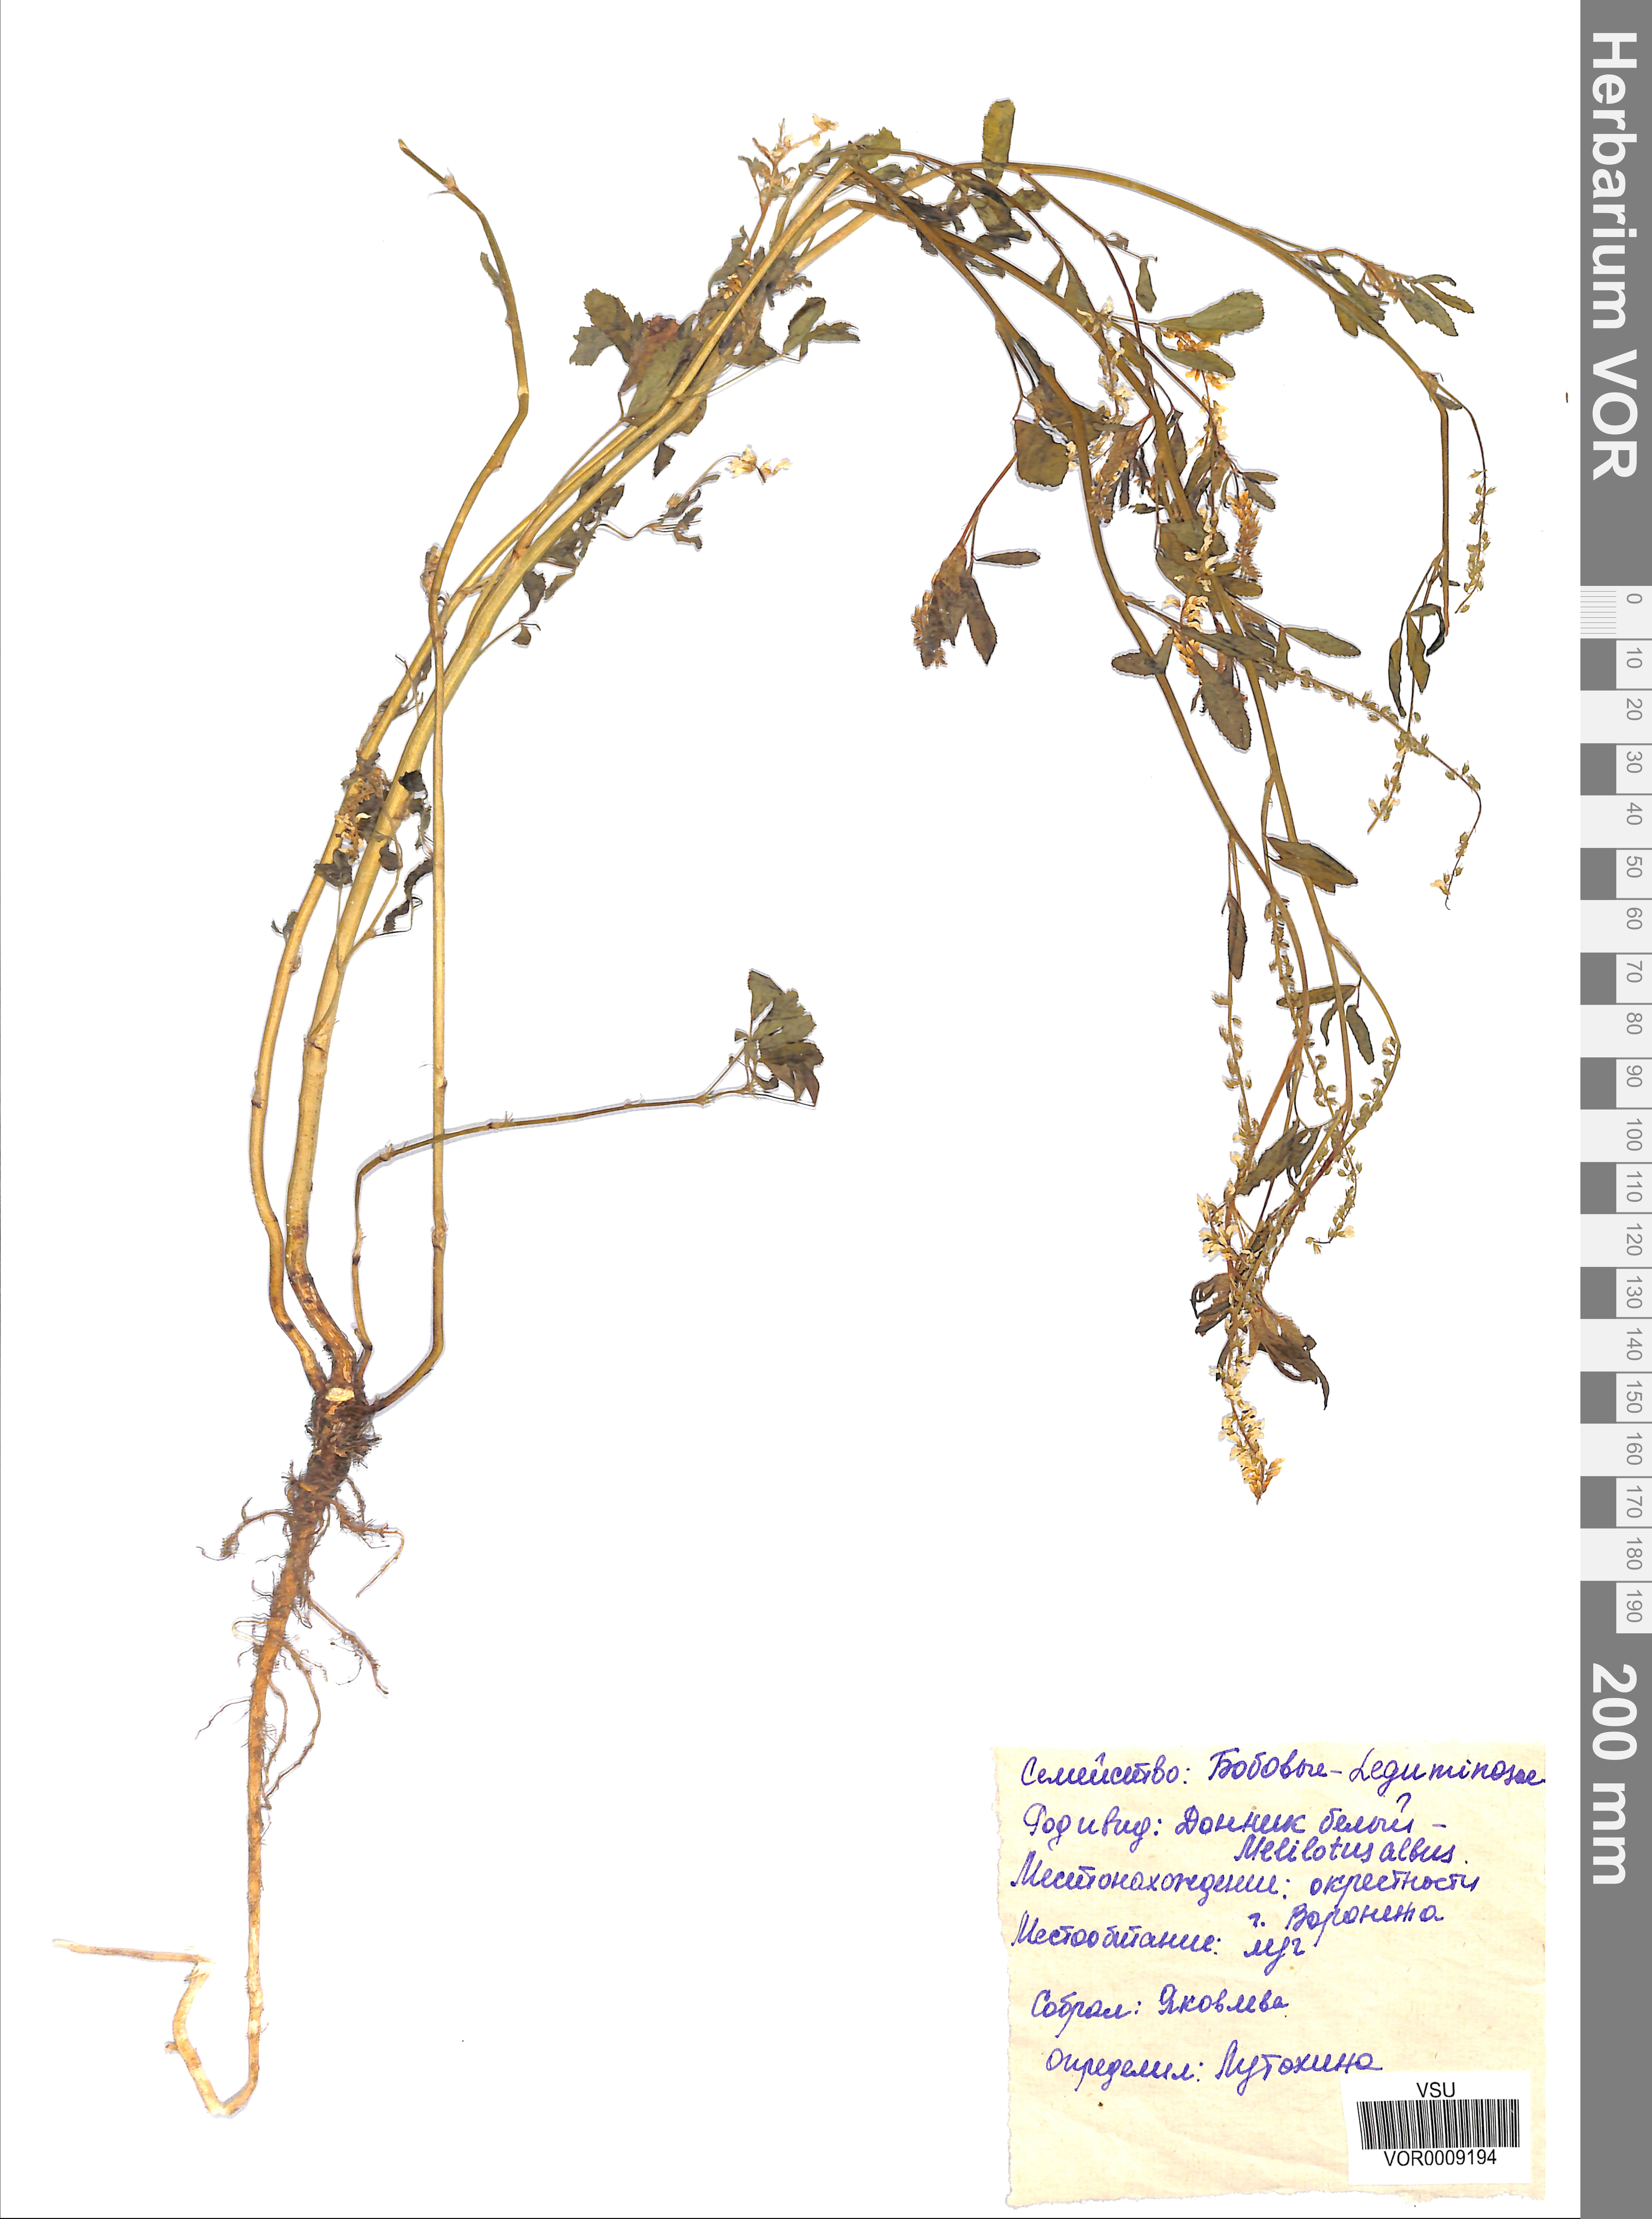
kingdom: Plantae
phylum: Tracheophyta
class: Magnoliopsida
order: Fabales
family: Fabaceae
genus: Melilotus
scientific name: Melilotus albus
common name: White melilot
